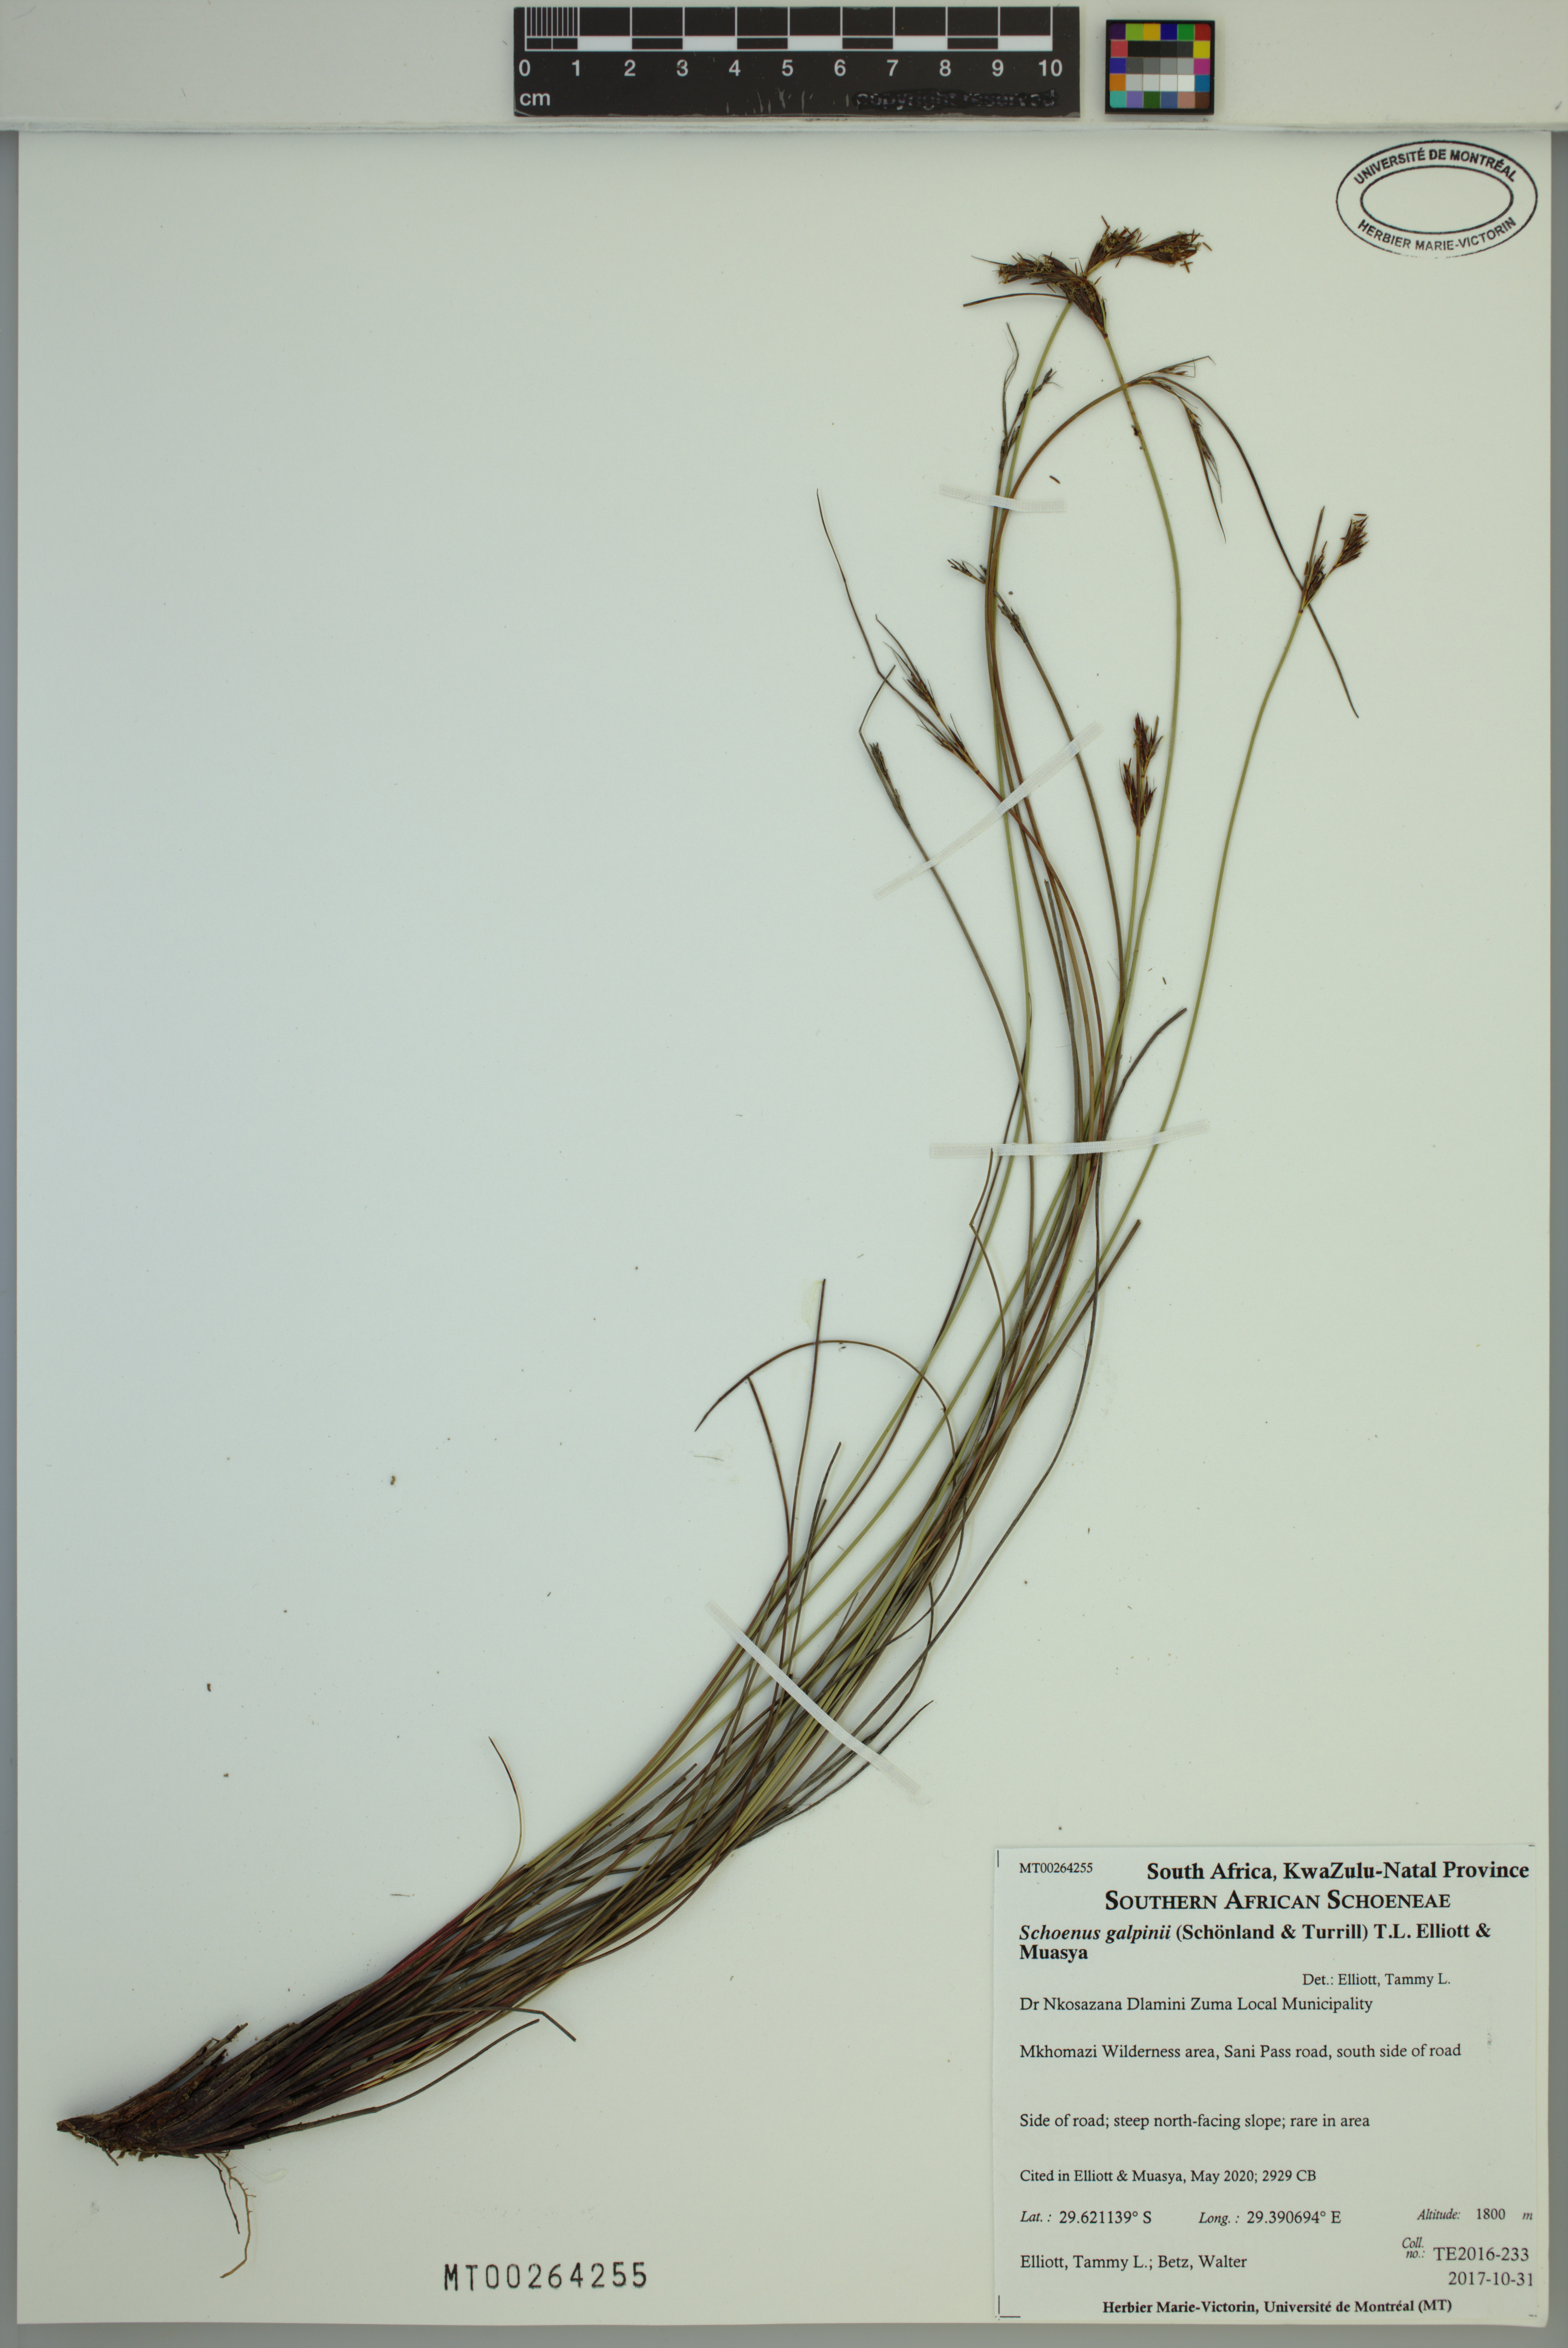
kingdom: Plantae
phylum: Tracheophyta
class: Liliopsida
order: Poales
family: Cyperaceae
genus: Schoenus
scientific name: Schoenus galpinii
